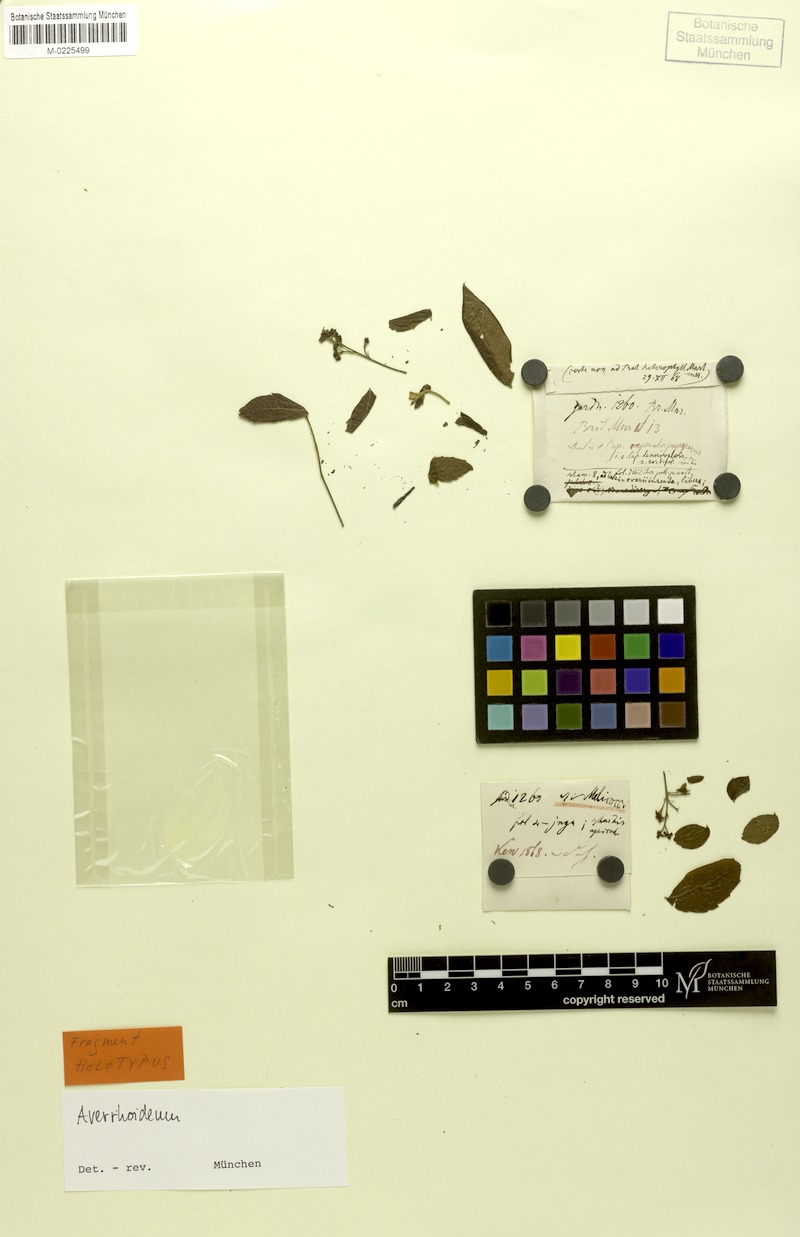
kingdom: Plantae
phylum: Tracheophyta
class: Magnoliopsida
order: Sapindales
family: Sapindaceae
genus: Averrhoidium
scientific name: Averrhoidium paraguaiense
